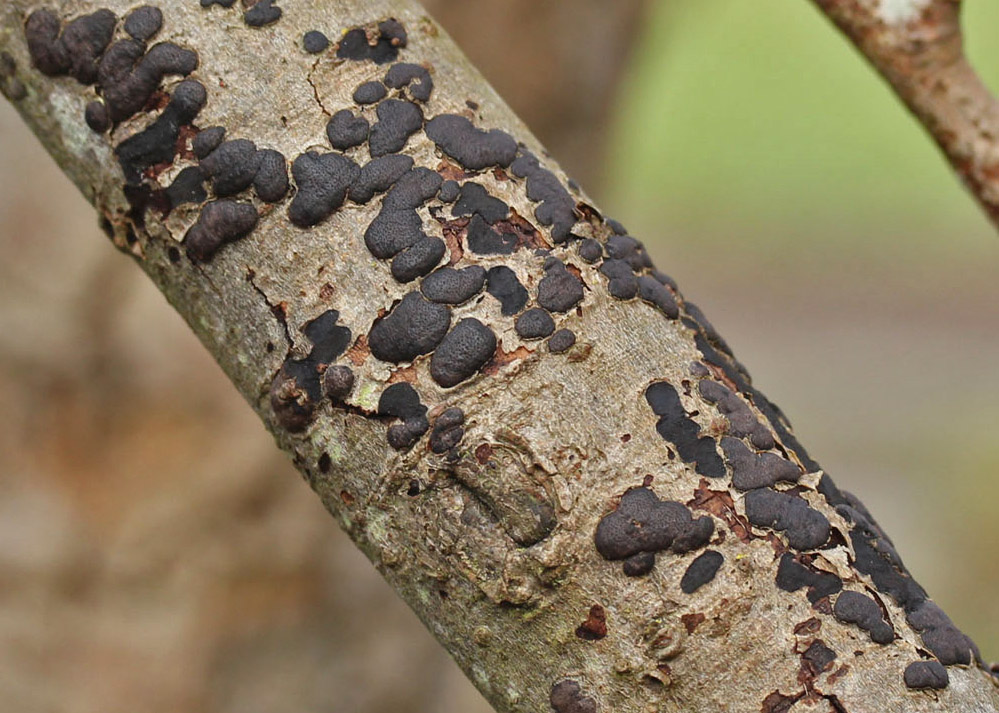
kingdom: Fungi
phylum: Ascomycota
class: Sordariomycetes
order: Xylariales
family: Diatrypaceae
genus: Diatrype
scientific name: Diatrype bullata
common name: pile-kulskorpe
